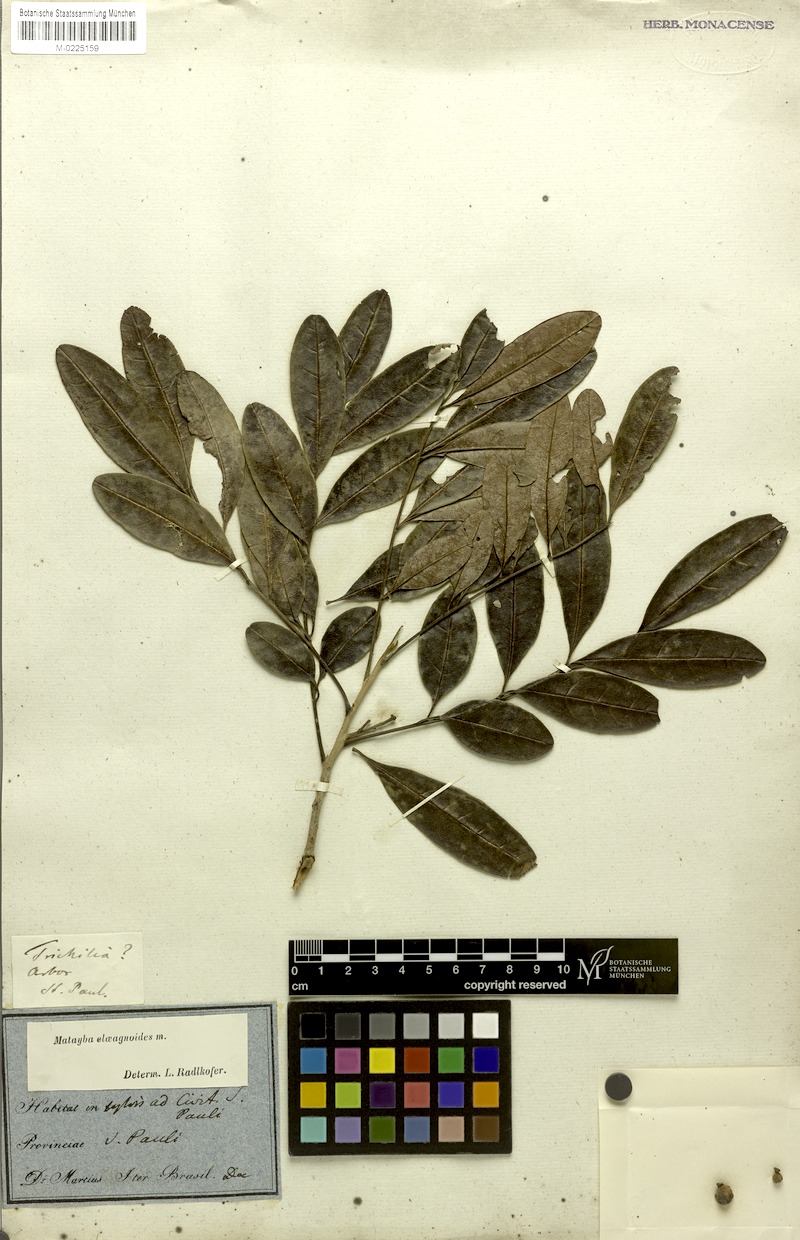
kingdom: Plantae
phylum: Tracheophyta
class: Magnoliopsida
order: Sapindales
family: Sapindaceae
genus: Matayba
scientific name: Matayba elaeagnoides
